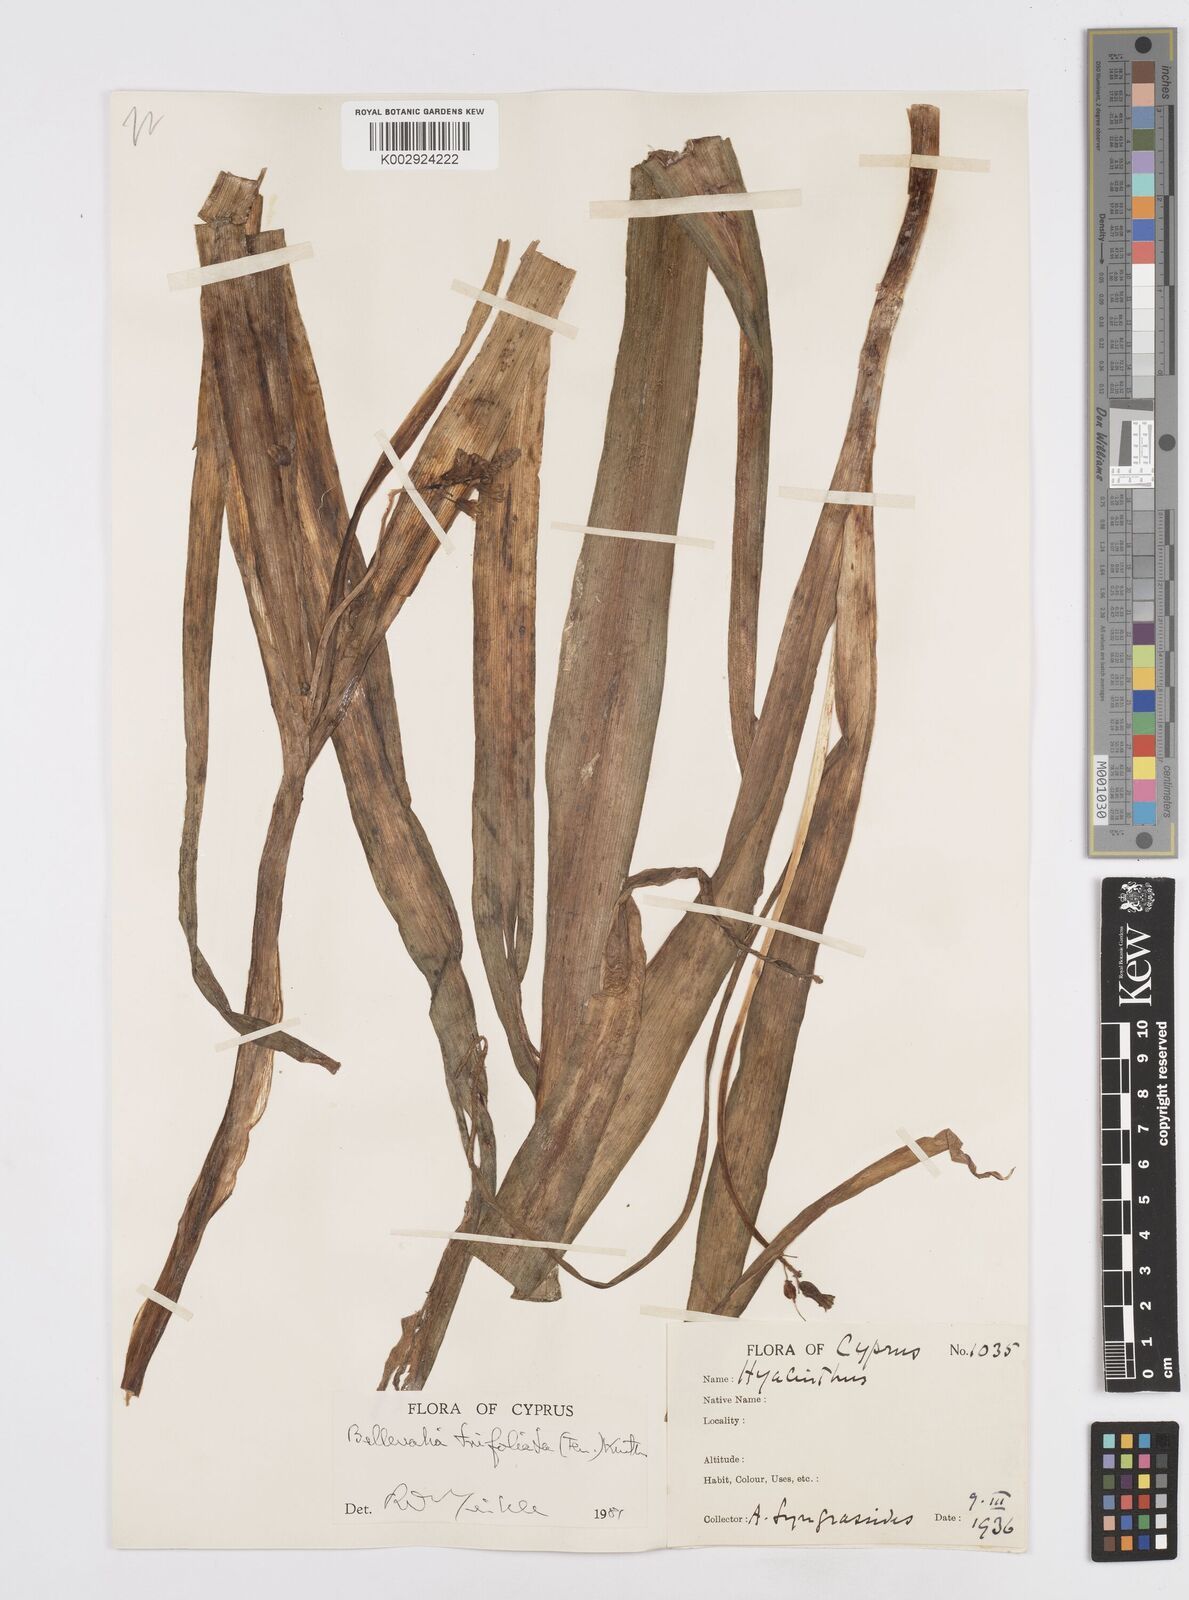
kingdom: Plantae
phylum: Tracheophyta
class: Liliopsida
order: Asparagales
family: Asparagaceae
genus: Bellevalia
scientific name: Bellevalia trifoliata
